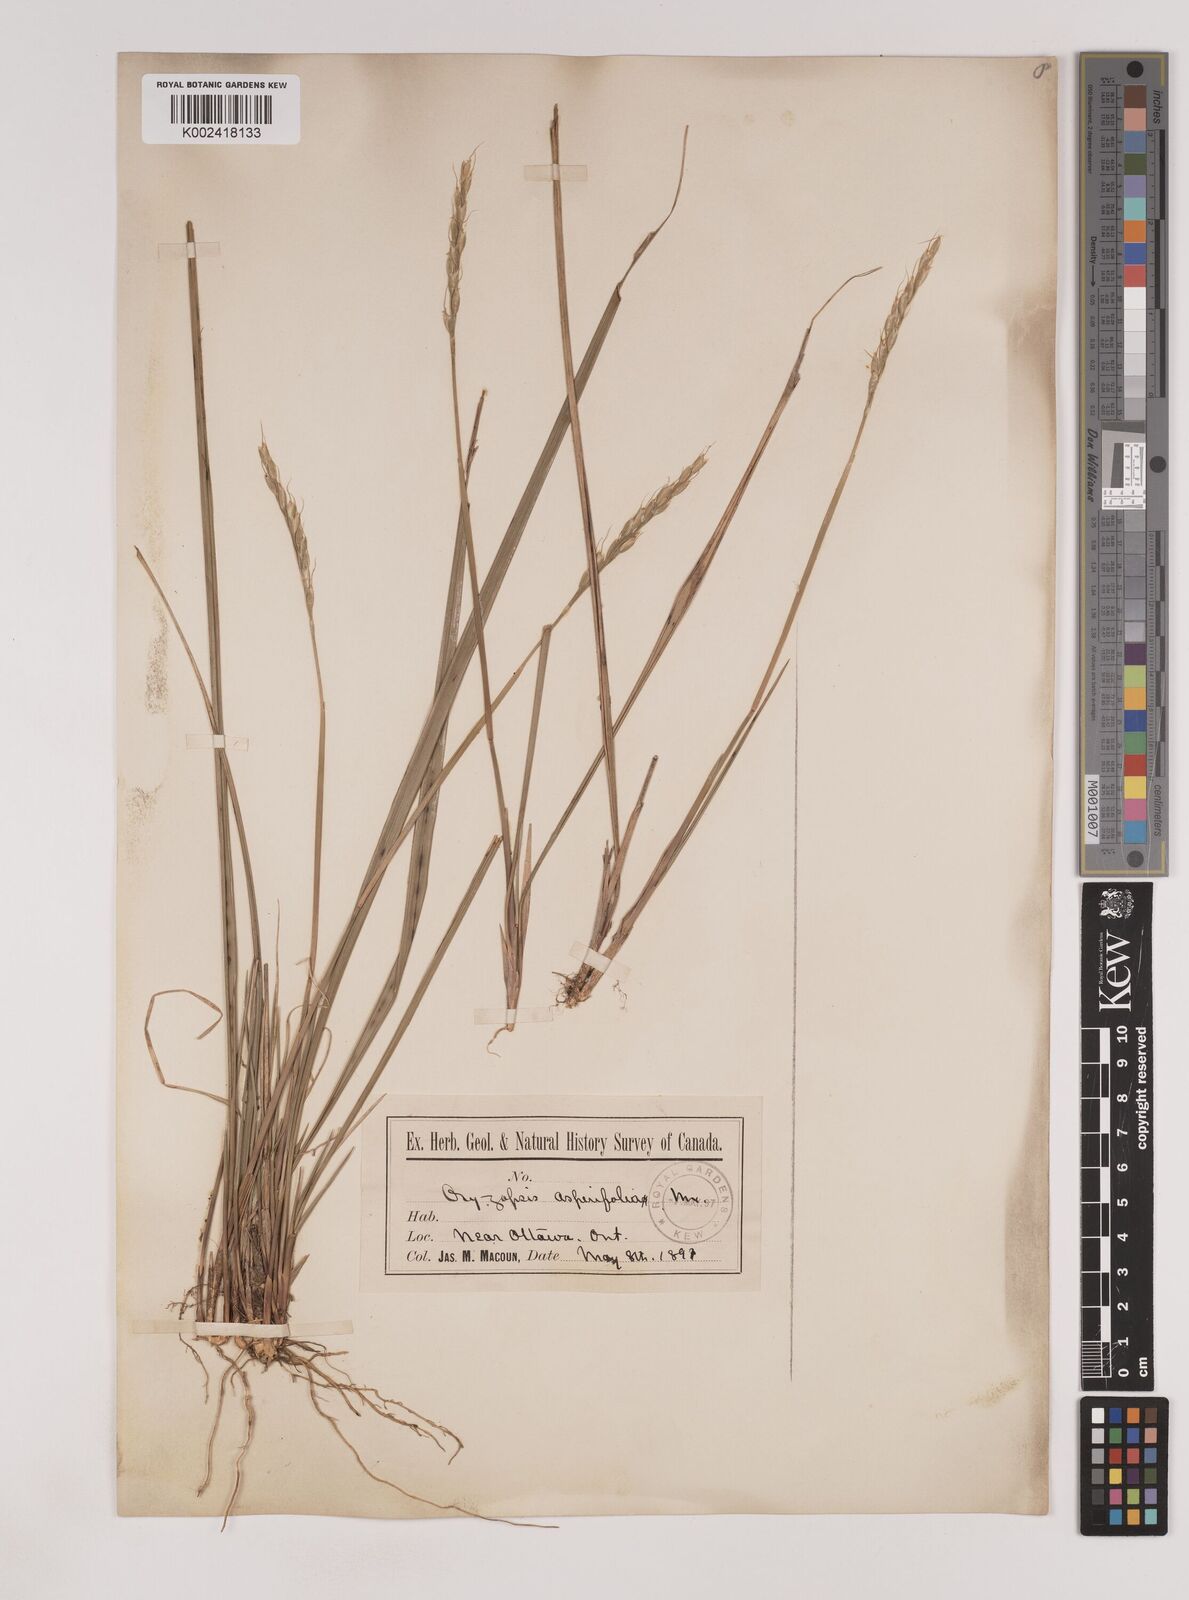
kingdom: Plantae
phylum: Tracheophyta
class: Liliopsida
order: Poales
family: Poaceae
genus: Oryzopsis
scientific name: Oryzopsis asperifolia
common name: Rough-leaved mountain rice
